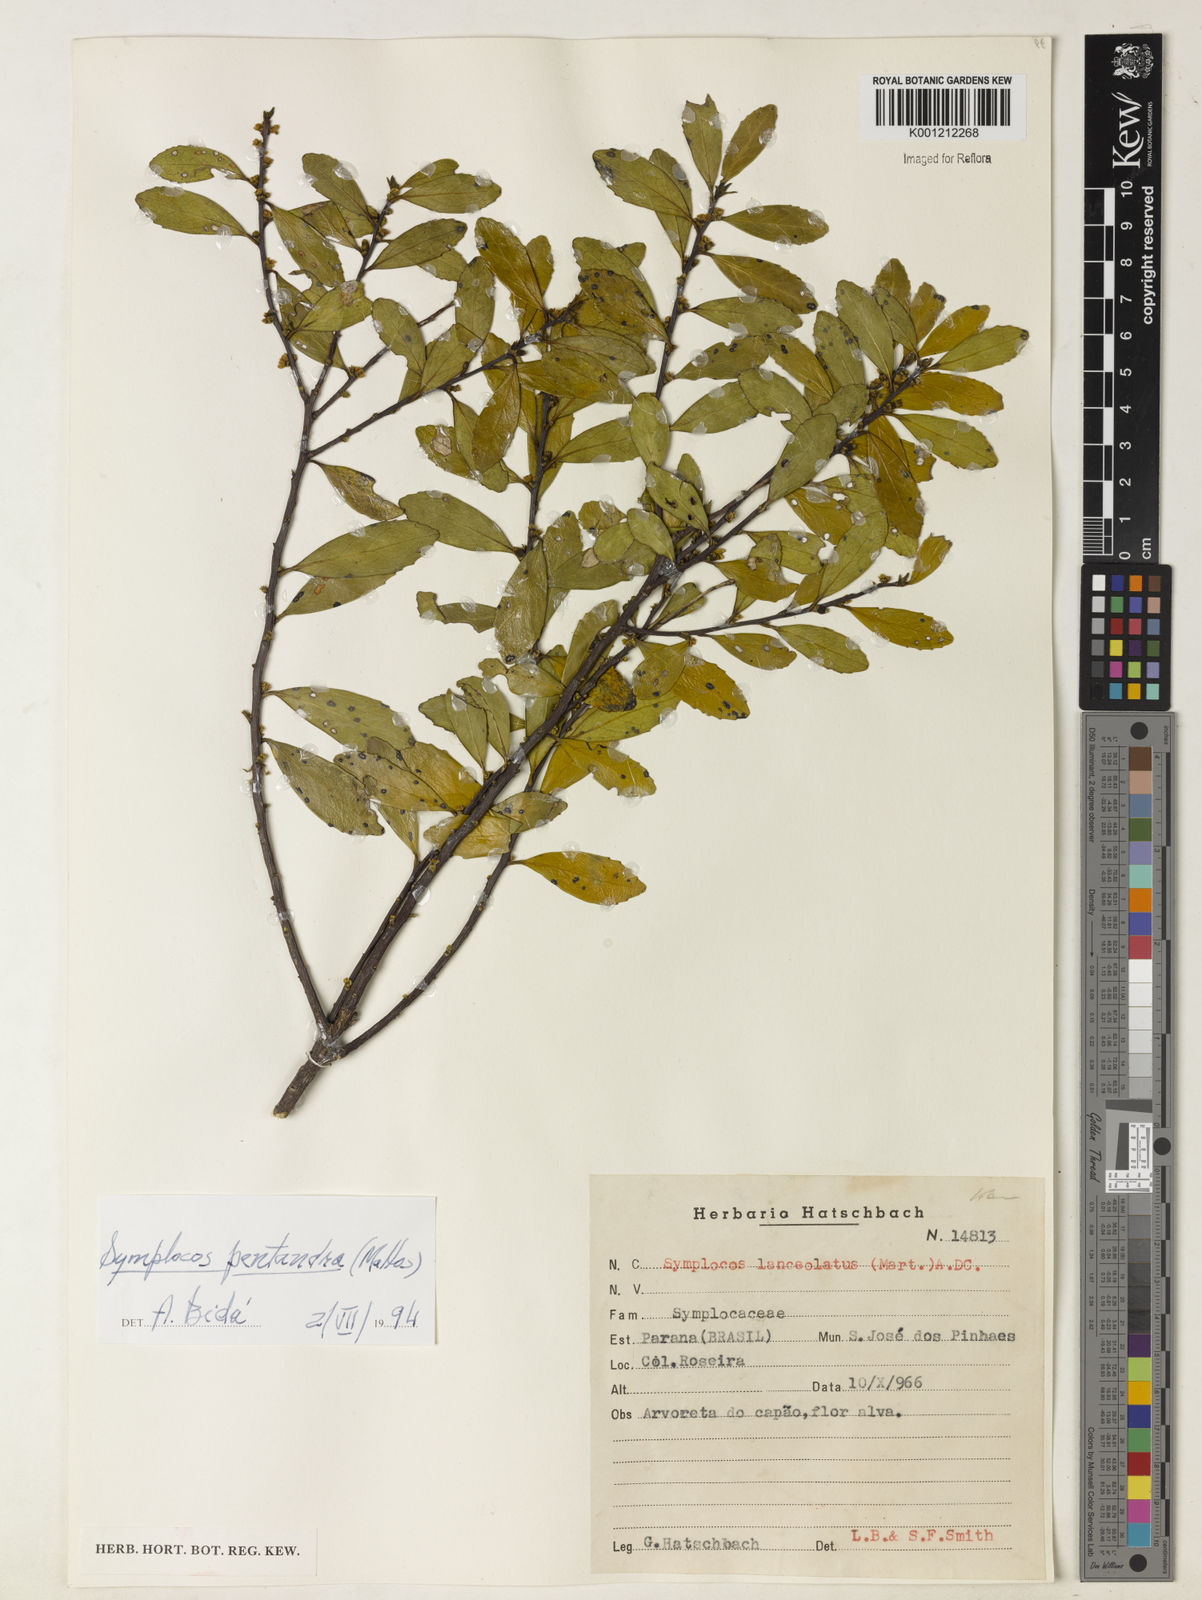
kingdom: Plantae
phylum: Tracheophyta
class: Magnoliopsida
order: Ericales
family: Symplocaceae
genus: Symplocos
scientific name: Symplocos pentandra
